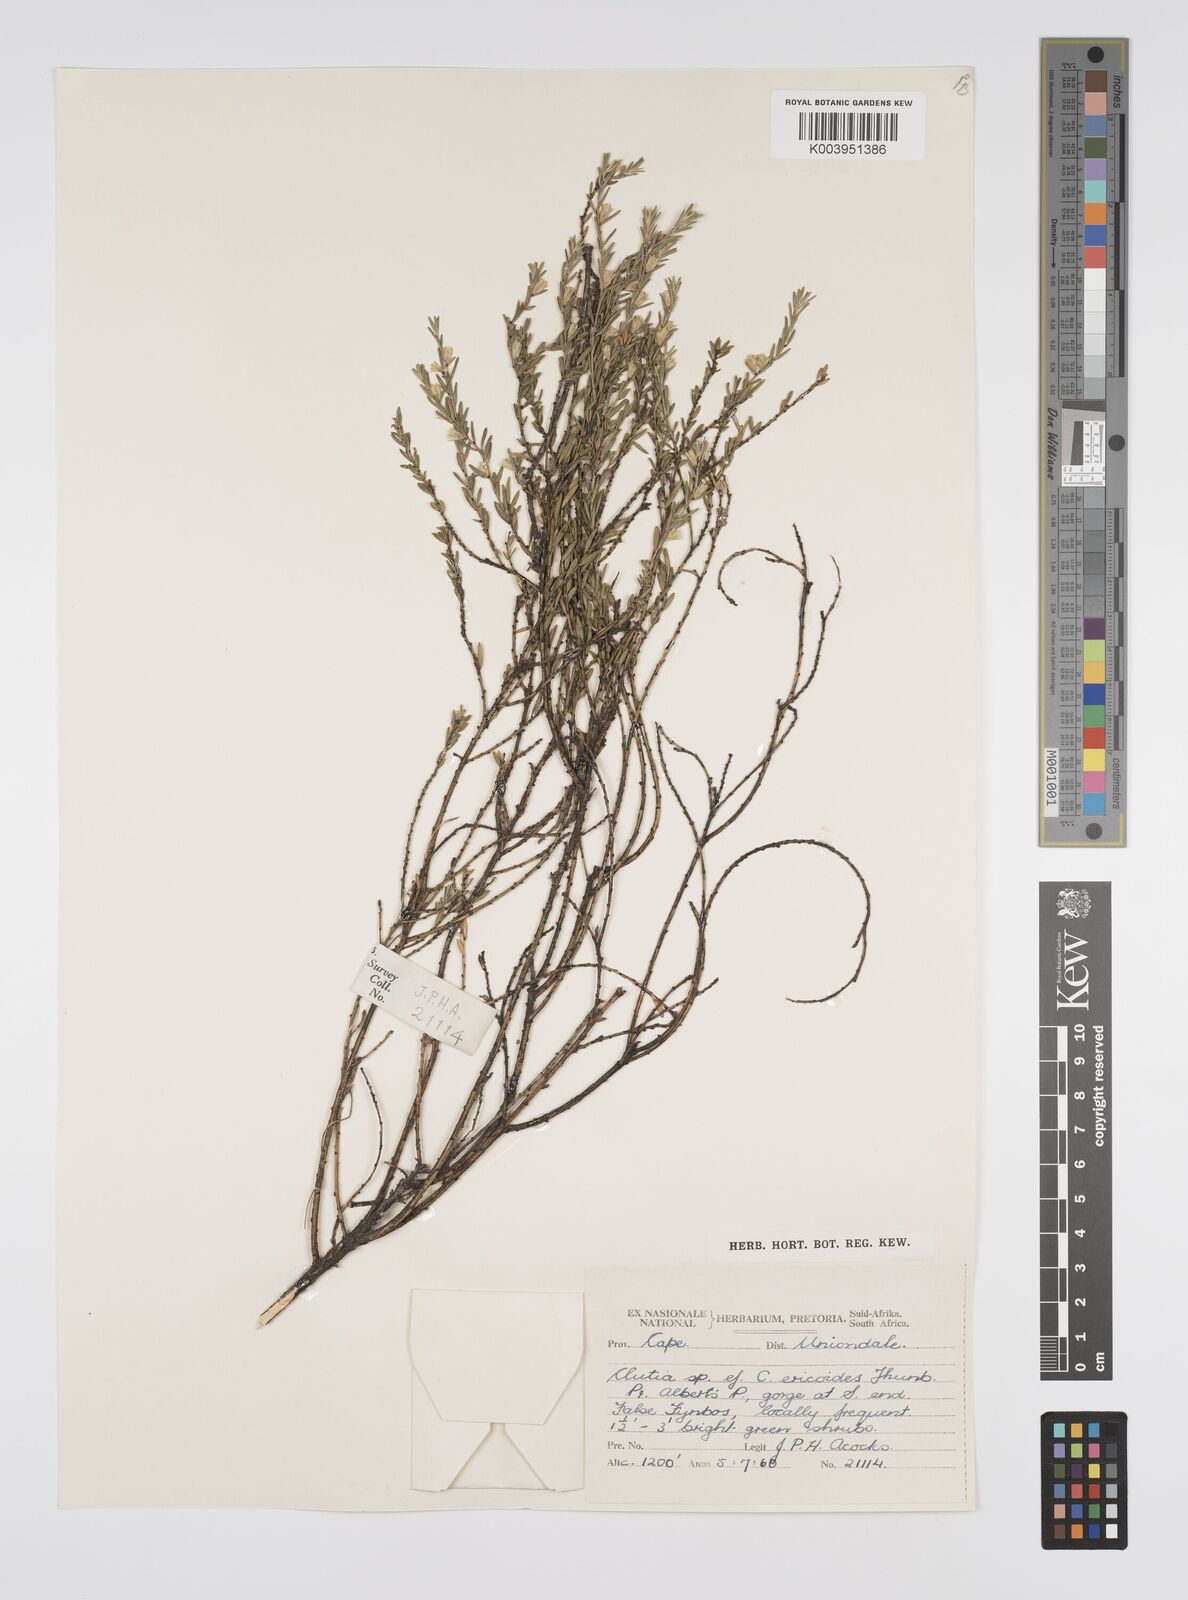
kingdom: Plantae
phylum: Tracheophyta
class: Magnoliopsida
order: Malpighiales
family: Peraceae
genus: Clutia
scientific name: Clutia
